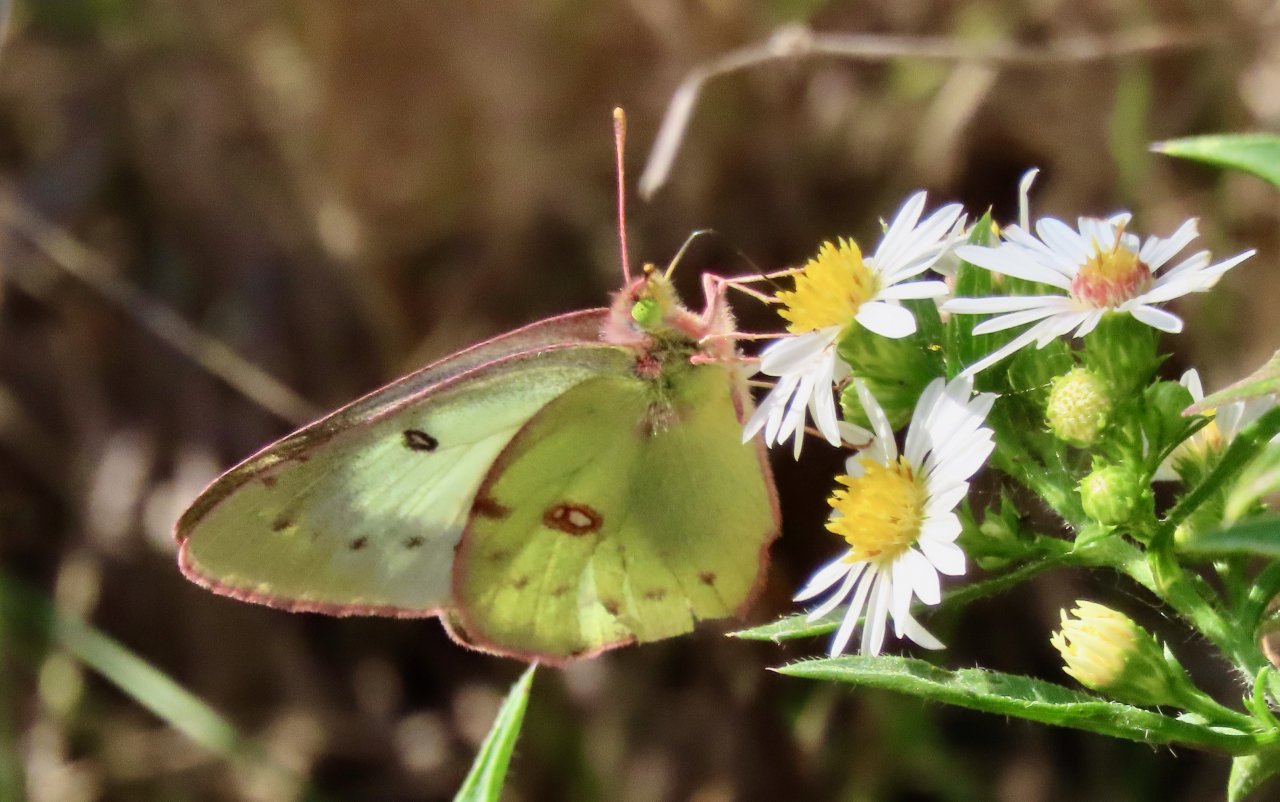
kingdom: Animalia
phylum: Arthropoda
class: Insecta
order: Lepidoptera
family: Pieridae
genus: Colias
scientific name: Colias philodice
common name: Clouded Sulphur
